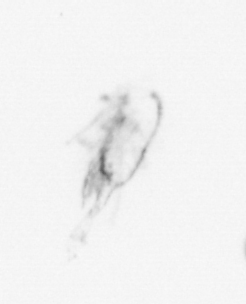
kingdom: Animalia
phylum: Arthropoda
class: Copepoda
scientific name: Copepoda
